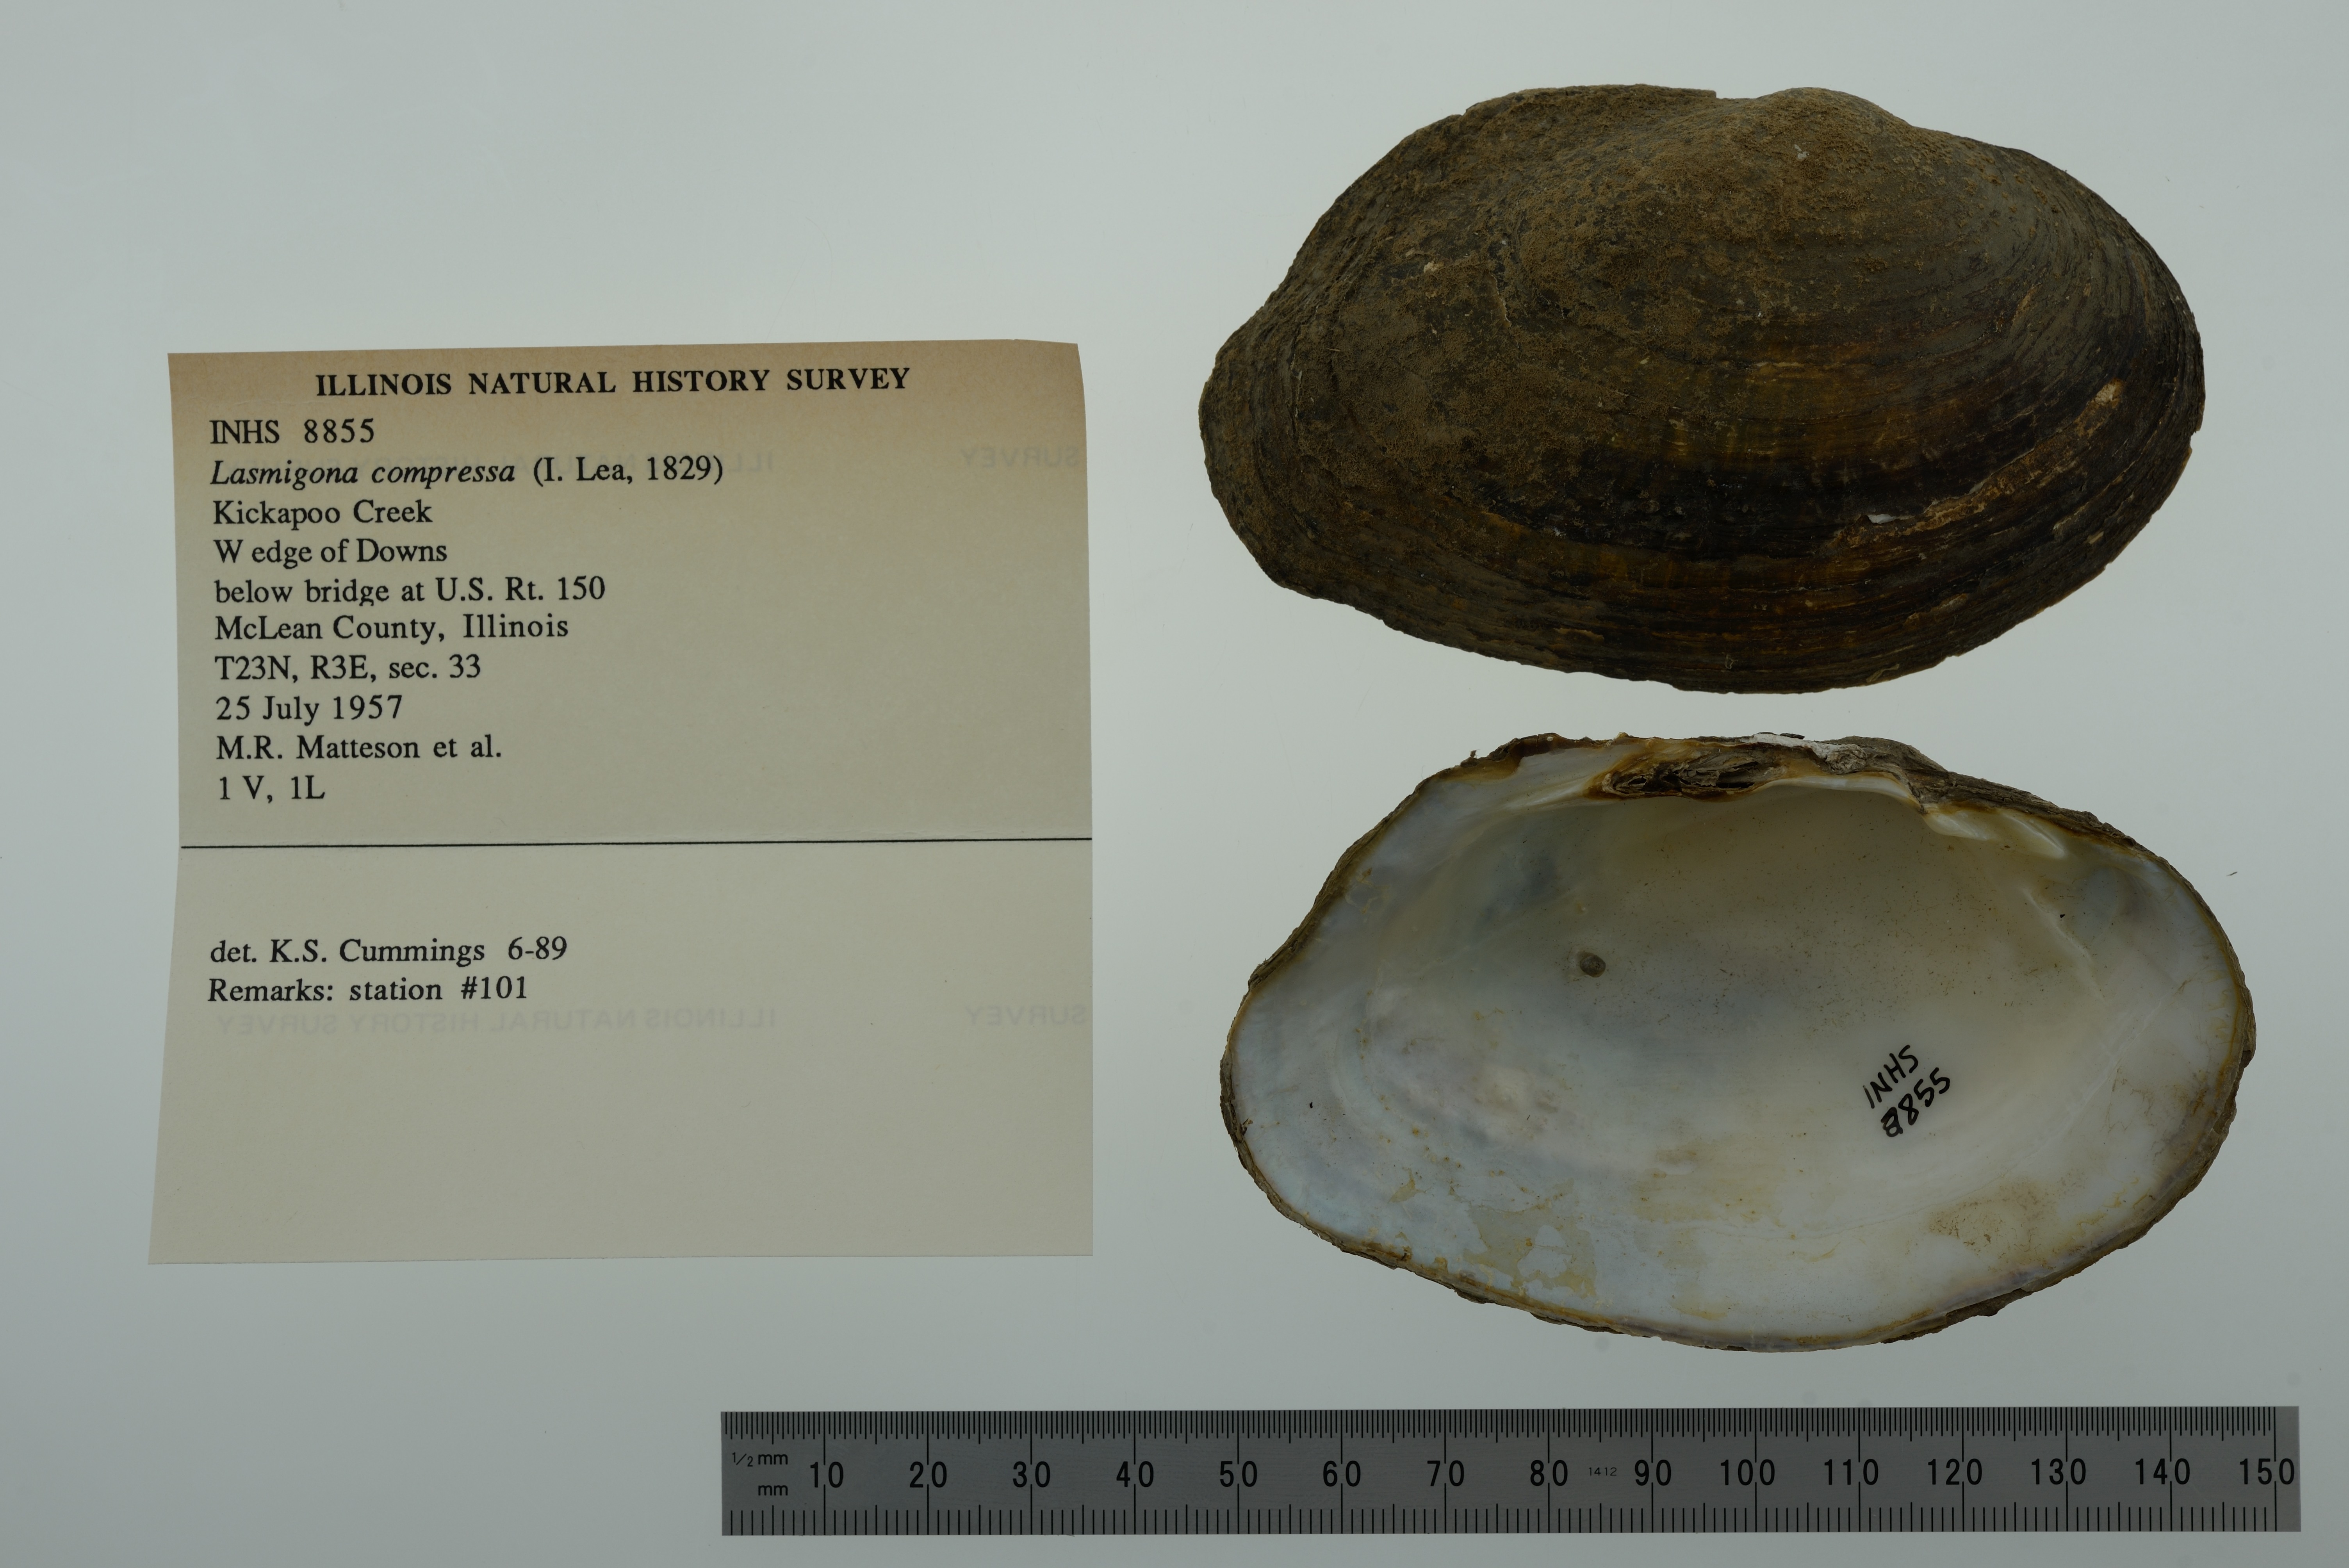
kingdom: Animalia
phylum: Mollusca
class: Bivalvia
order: Unionida
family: Unionidae
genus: Lasmigona
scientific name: Lasmigona compressa
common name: Creek heelsplitter
